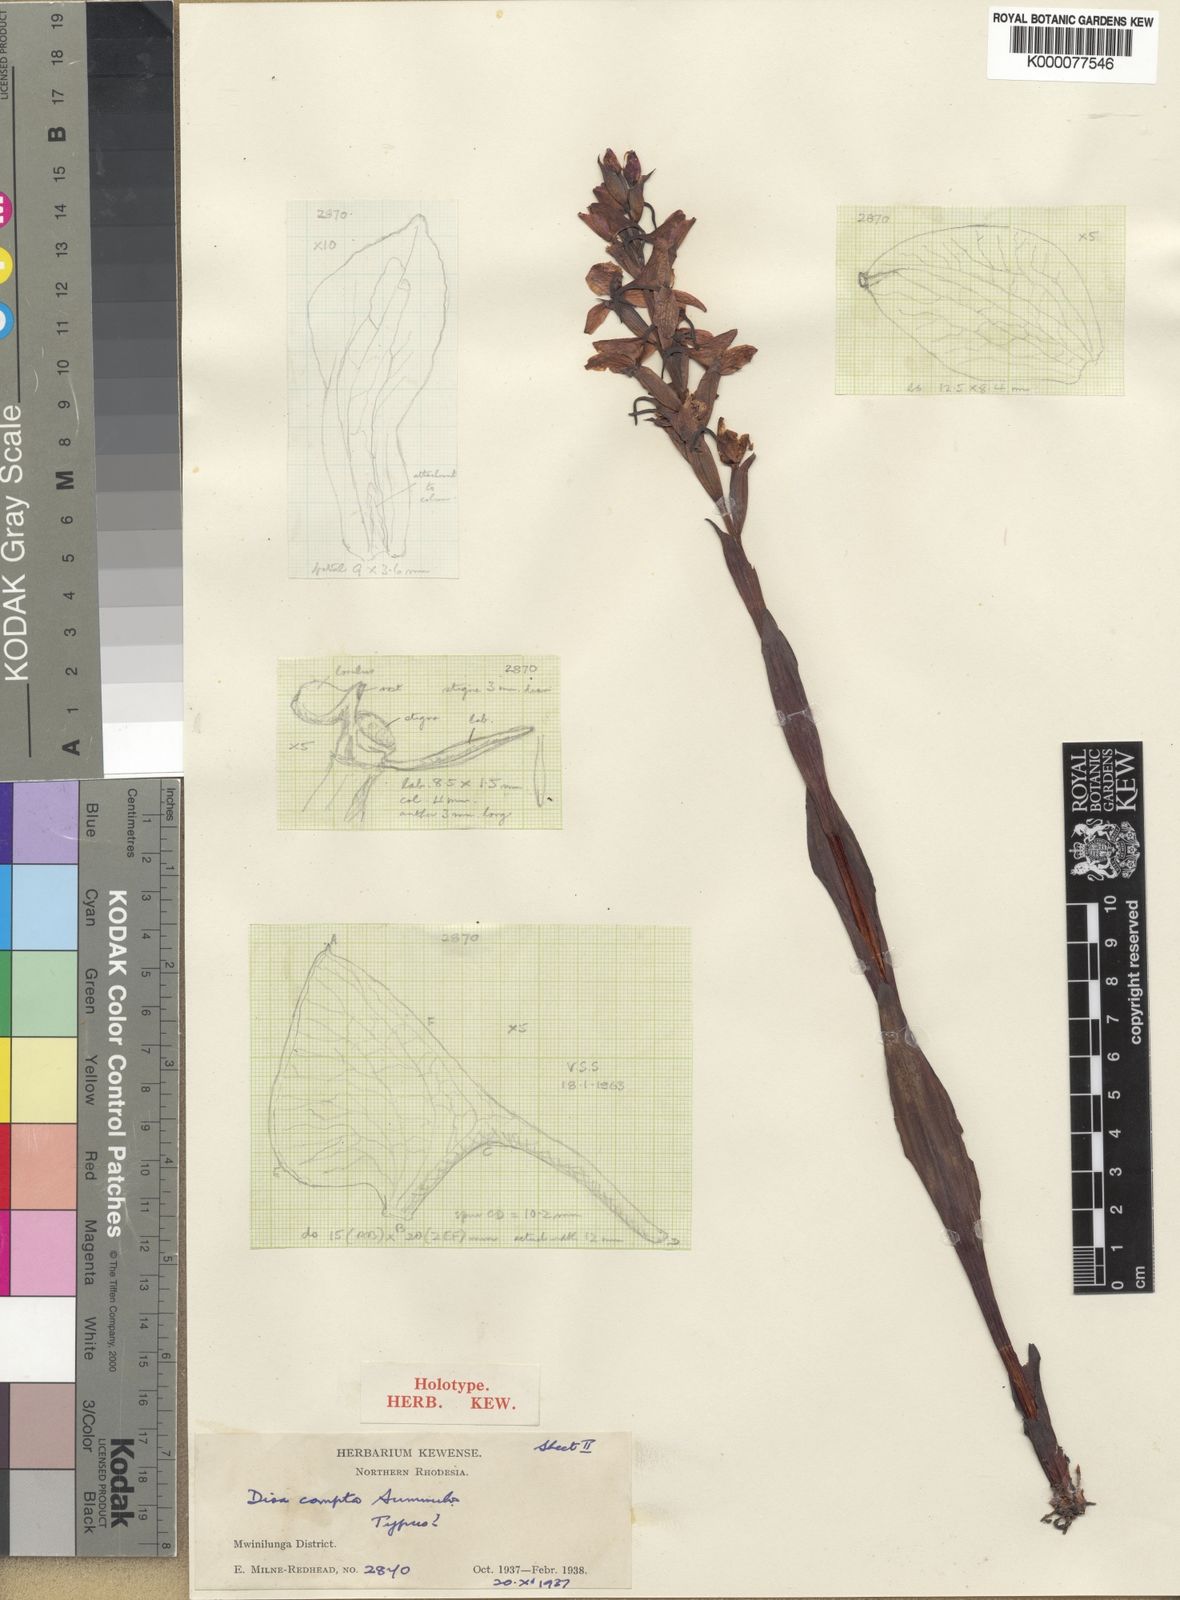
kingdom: Plantae
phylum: Tracheophyta
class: Liliopsida
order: Asparagales
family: Orchidaceae
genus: Disa
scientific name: Disa caffra
